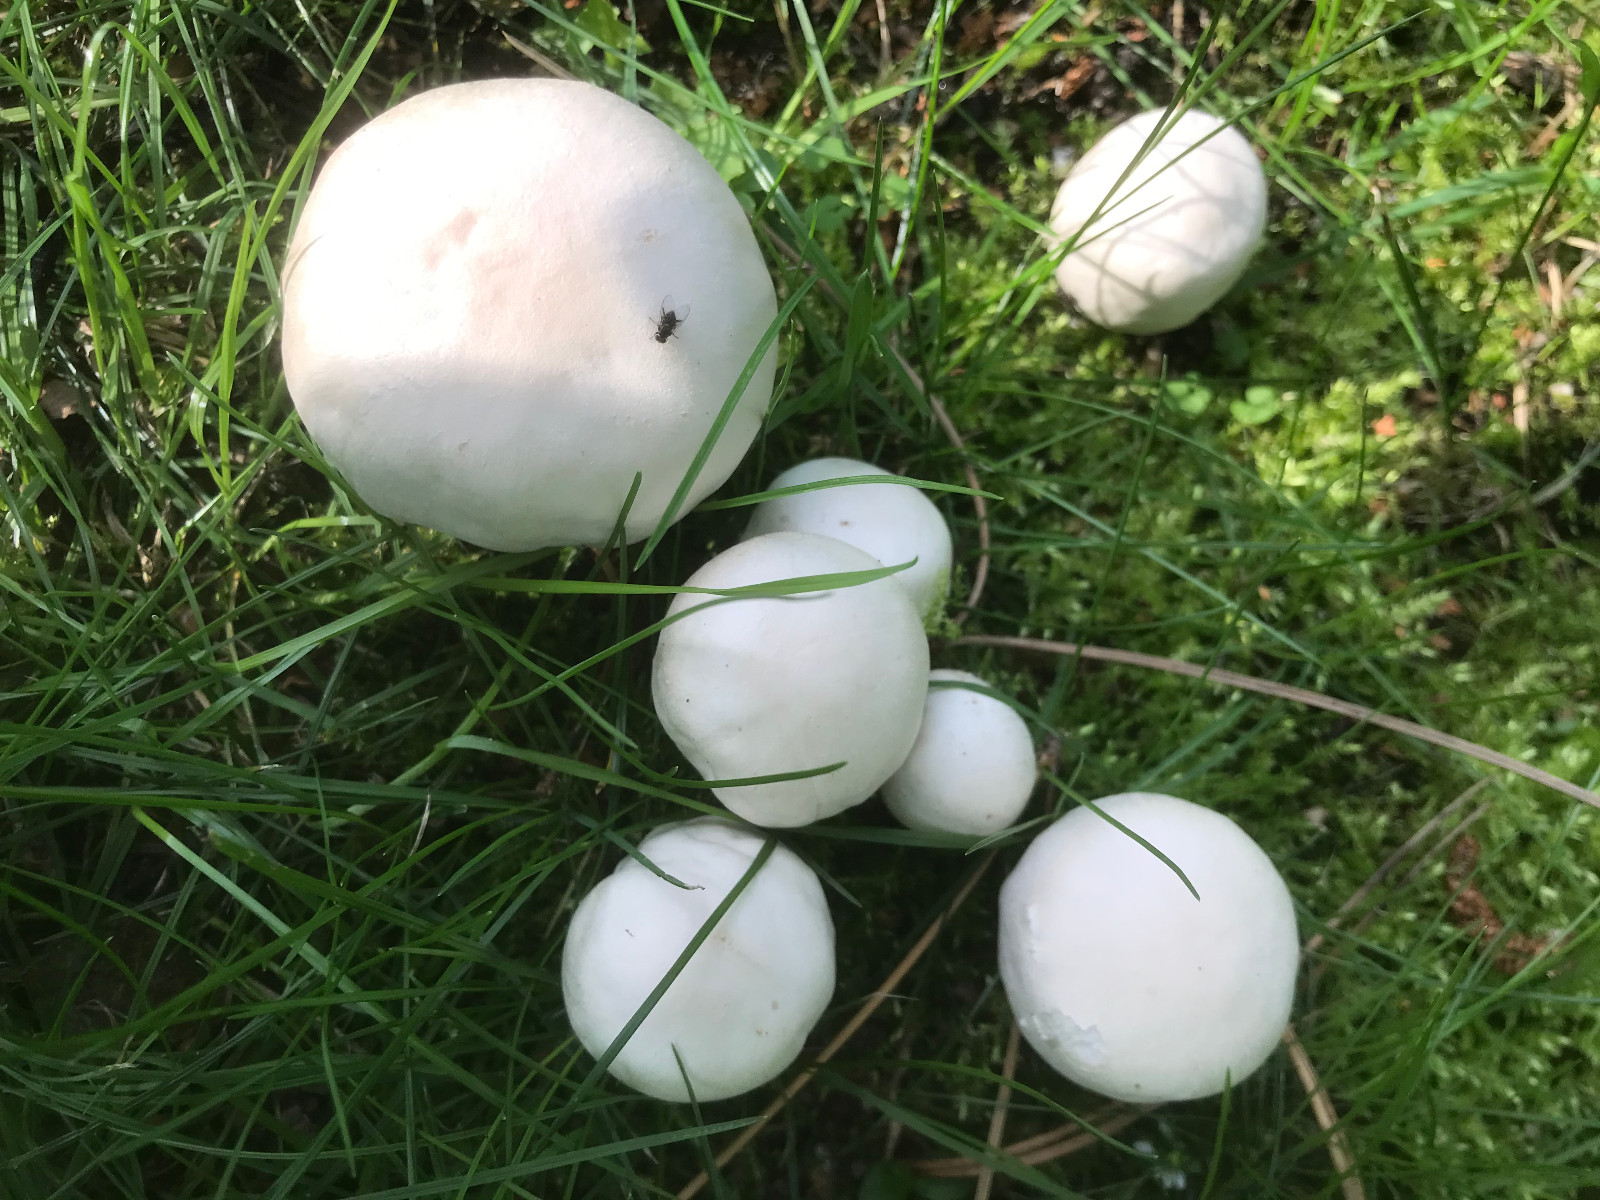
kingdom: Fungi
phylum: Basidiomycota
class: Agaricomycetes
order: Agaricales
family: Agaricaceae
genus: Agaricus
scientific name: Agaricus xanthodermus
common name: karbol-champignon
